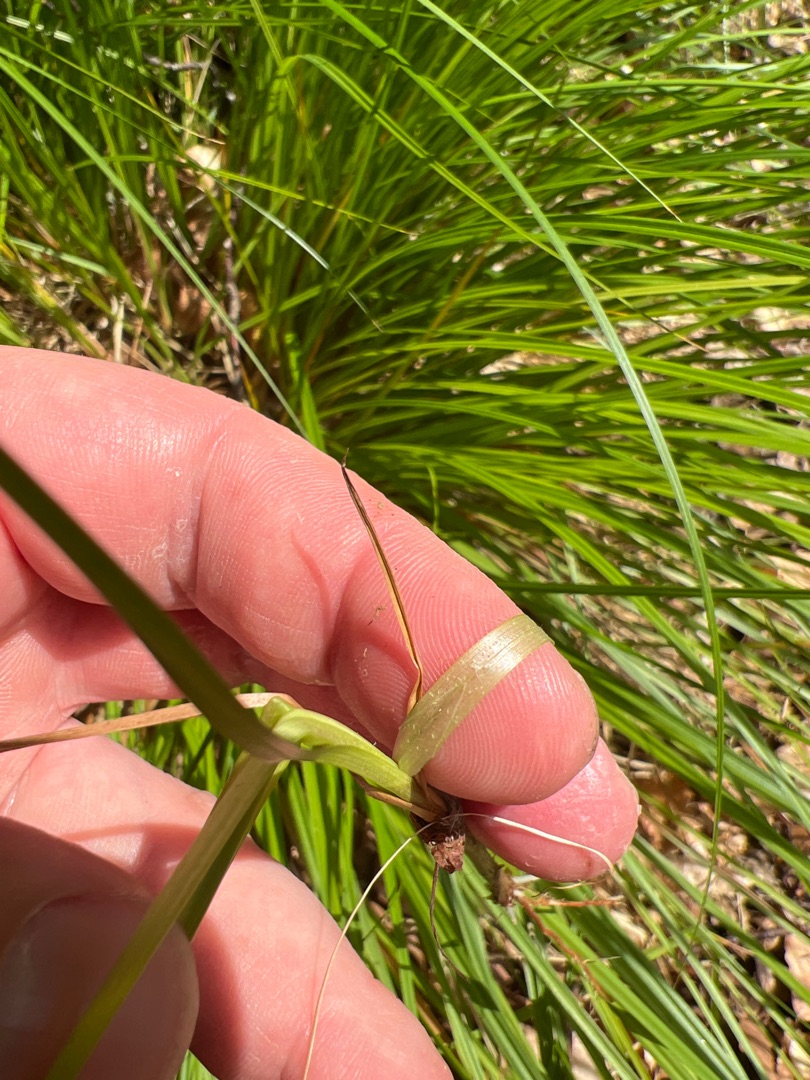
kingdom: Plantae
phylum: Tracheophyta
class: Liliopsida
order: Poales
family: Cyperaceae
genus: Carex
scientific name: Carex elongata
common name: Forlænget star
